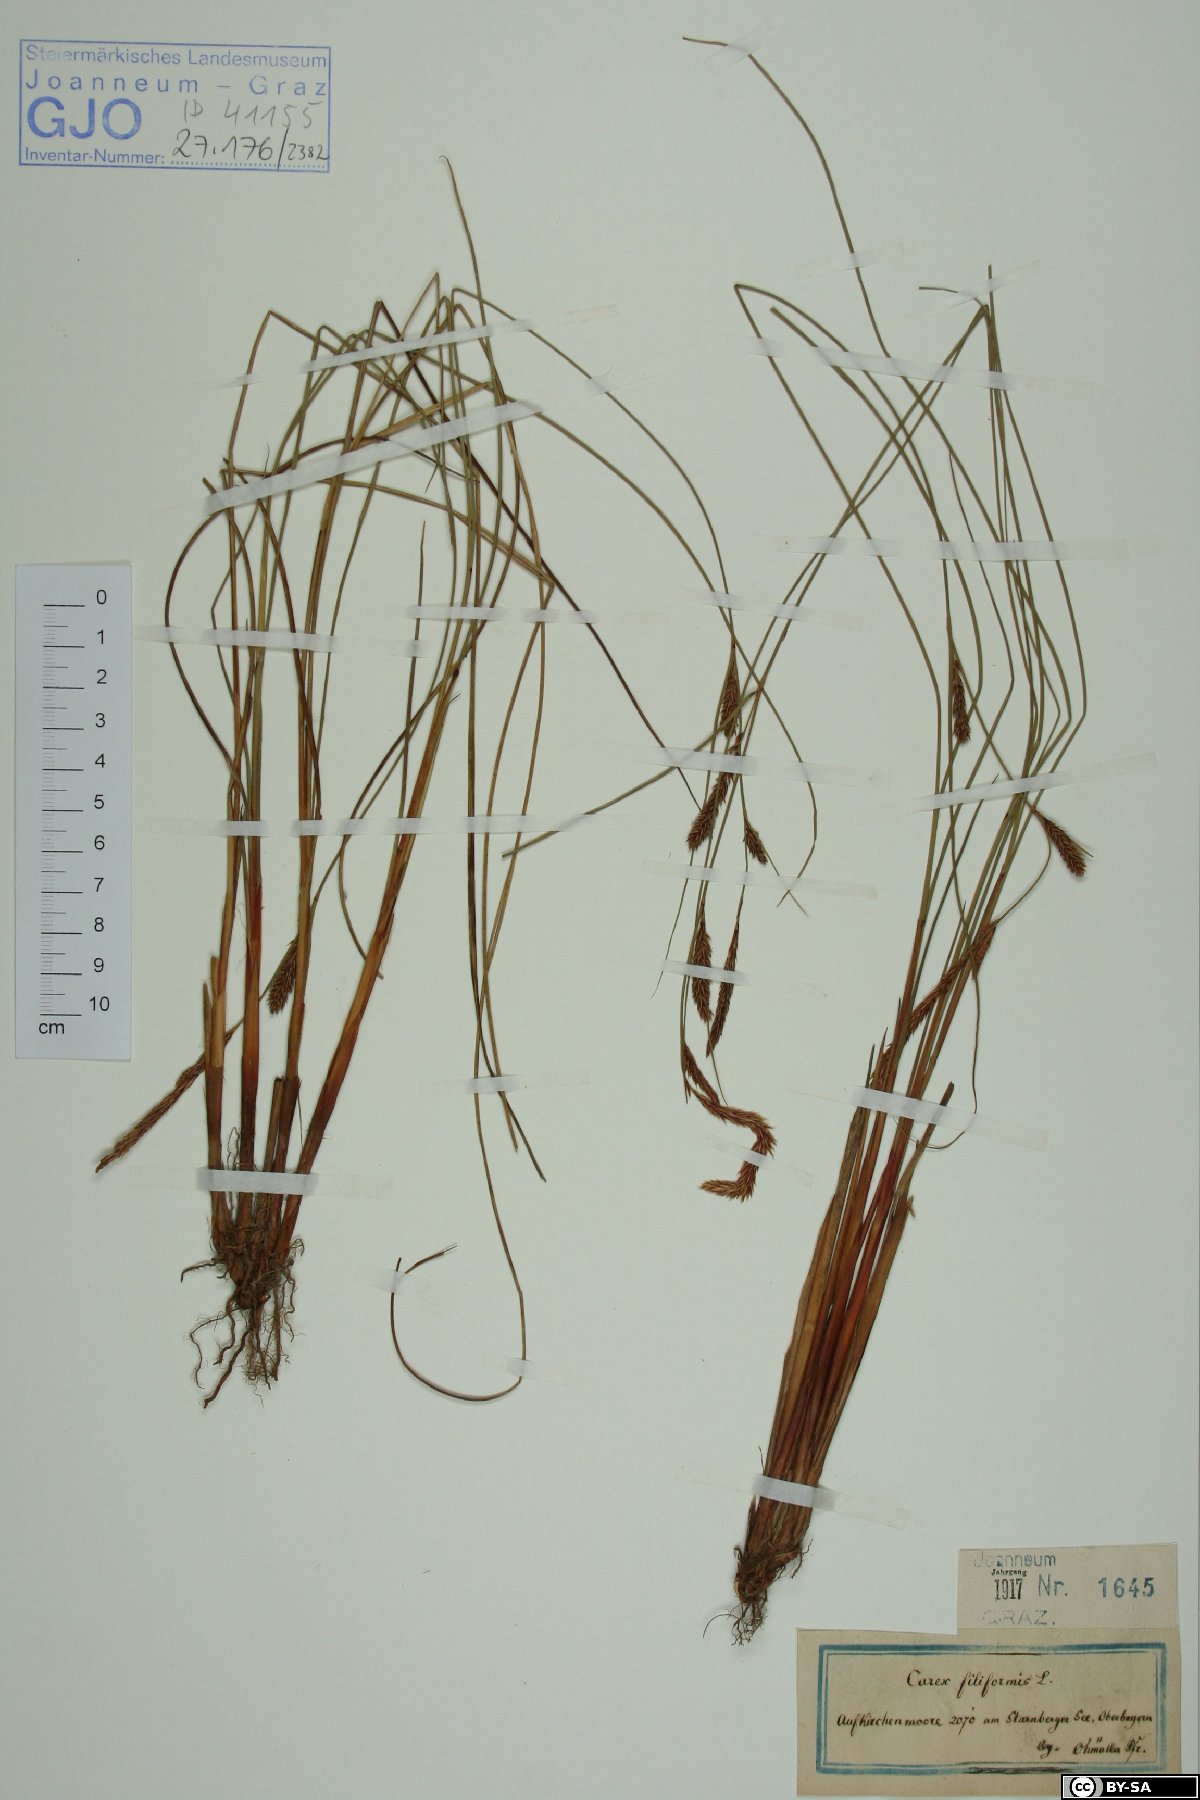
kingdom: Plantae
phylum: Tracheophyta
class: Liliopsida
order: Poales
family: Cyperaceae
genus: Carex
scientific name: Carex montana
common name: Soft-leaved sedge
